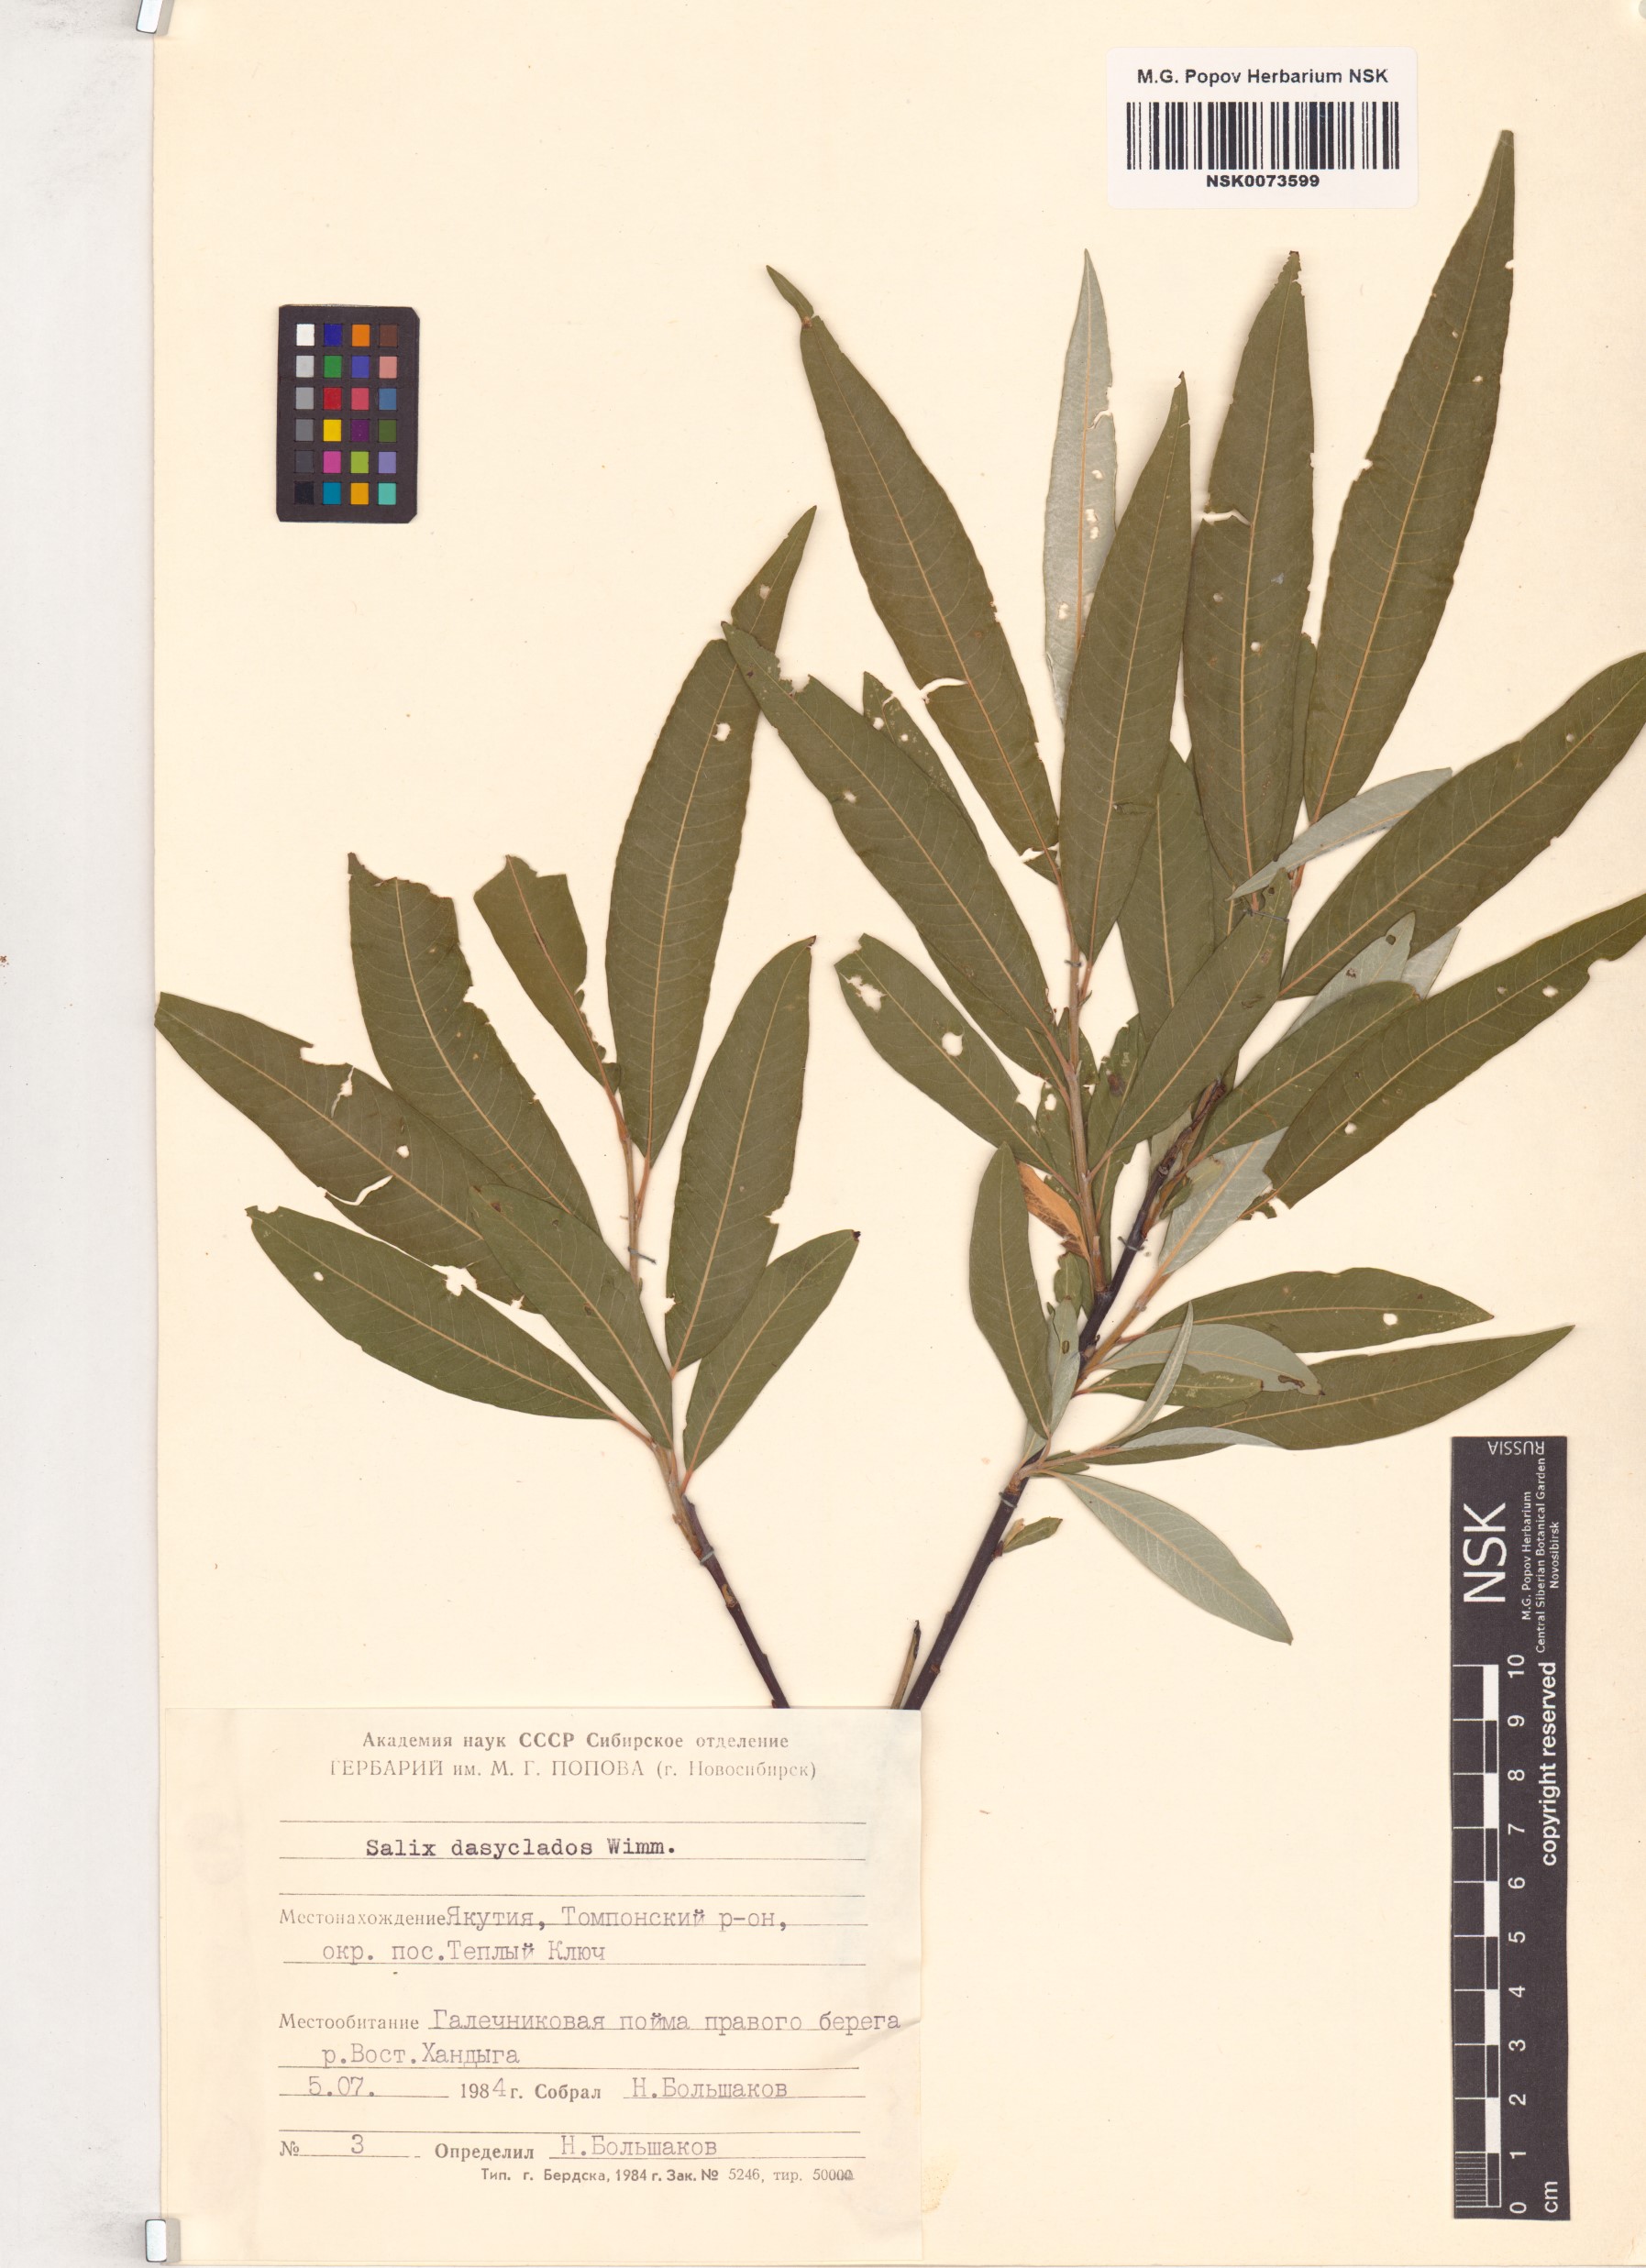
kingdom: Plantae
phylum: Tracheophyta
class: Magnoliopsida
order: Malpighiales
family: Salicaceae
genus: Salix
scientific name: Salix gmelinii
